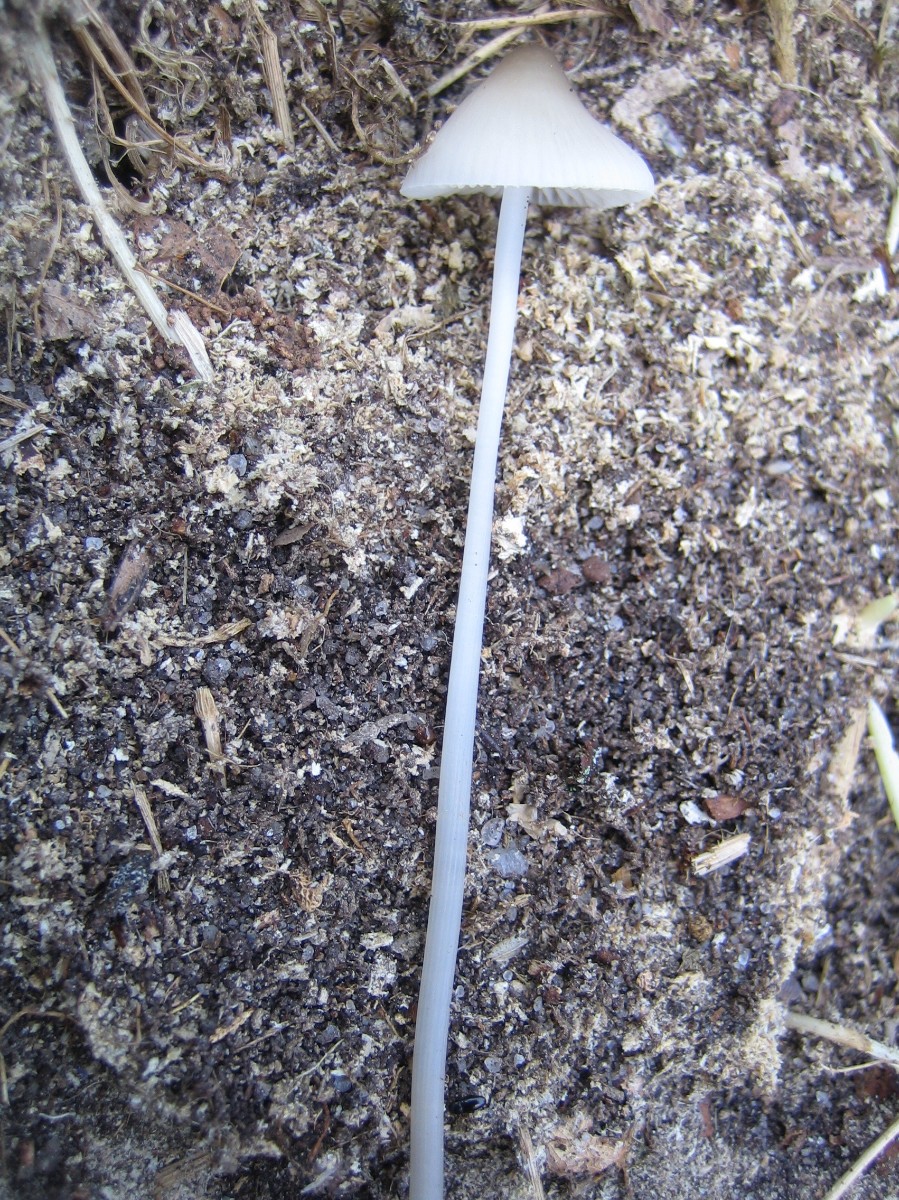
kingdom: Fungi
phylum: Basidiomycota
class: Agaricomycetes
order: Agaricales
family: Mycenaceae
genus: Mycena
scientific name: Mycena vitilis
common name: blankstokket huesvamp
